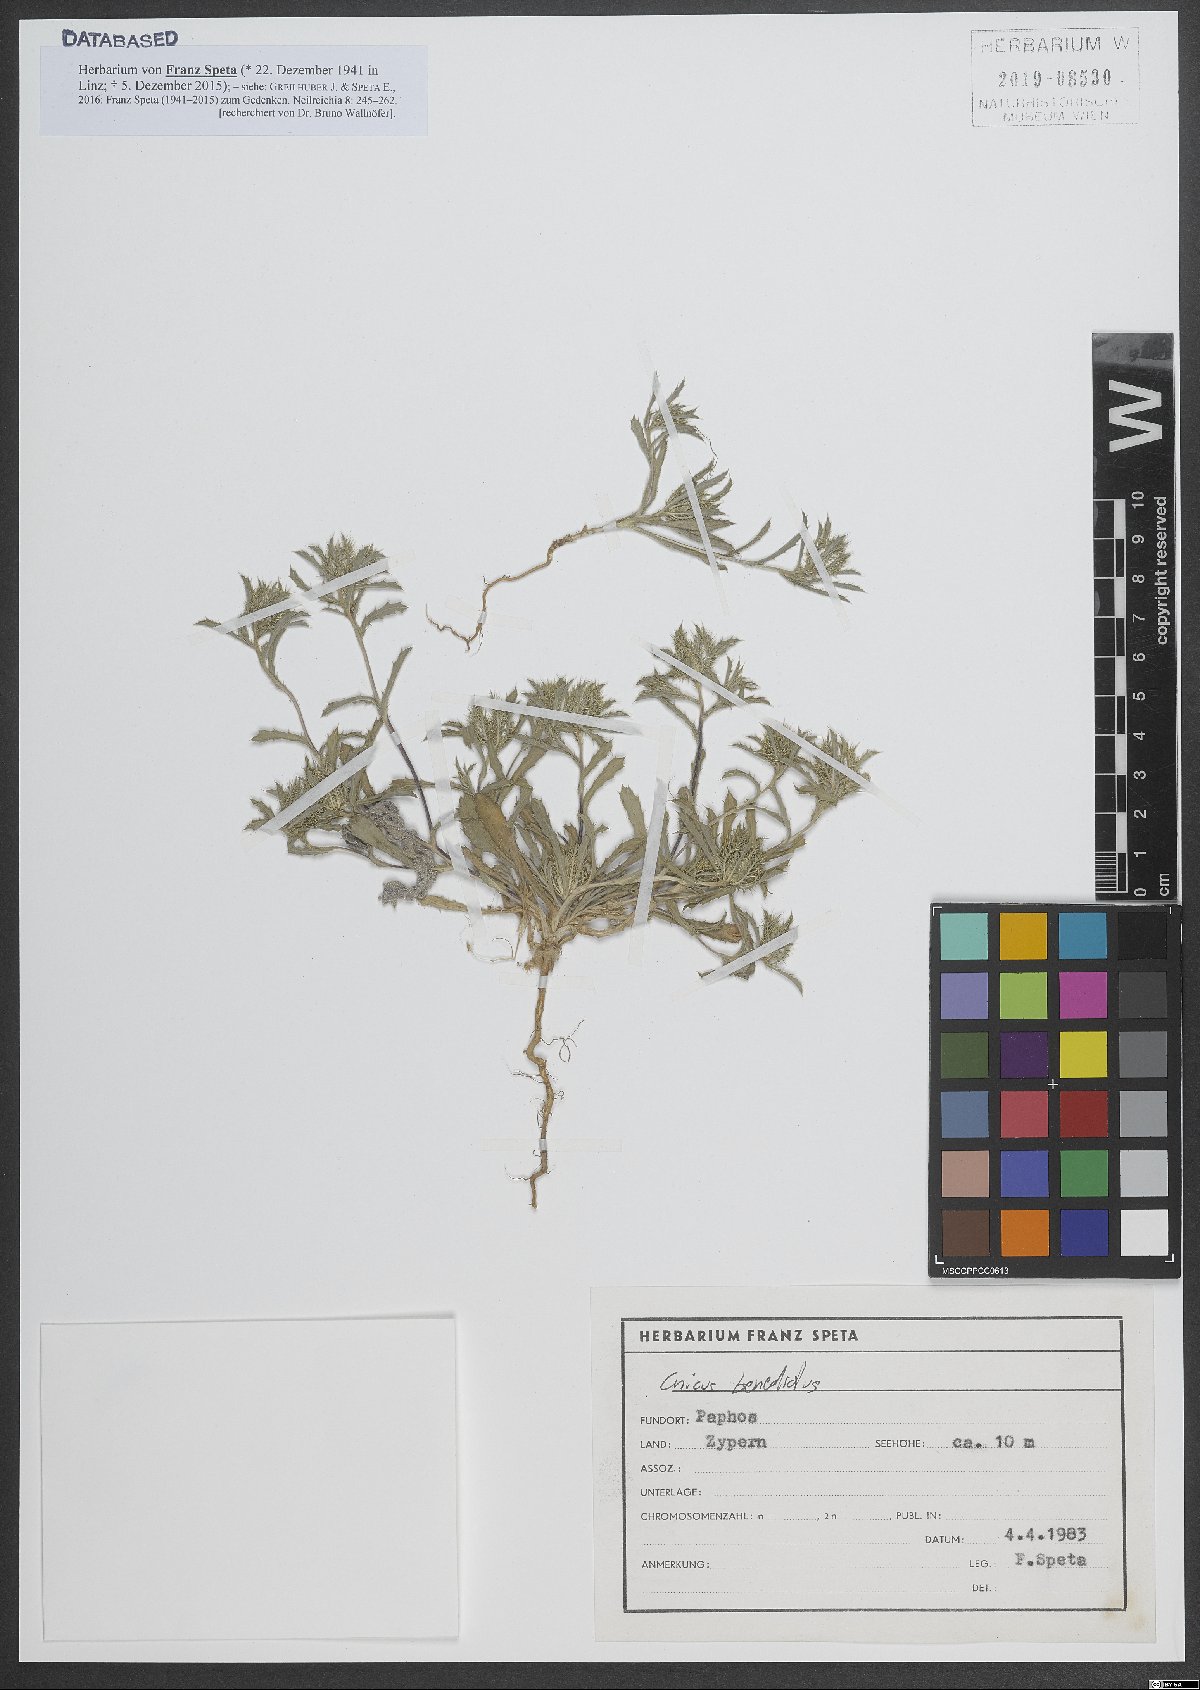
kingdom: Plantae
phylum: Tracheophyta
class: Magnoliopsida
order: Asterales
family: Asteraceae
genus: Centaurea
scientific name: Centaurea benedicta
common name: Blessed thistle
